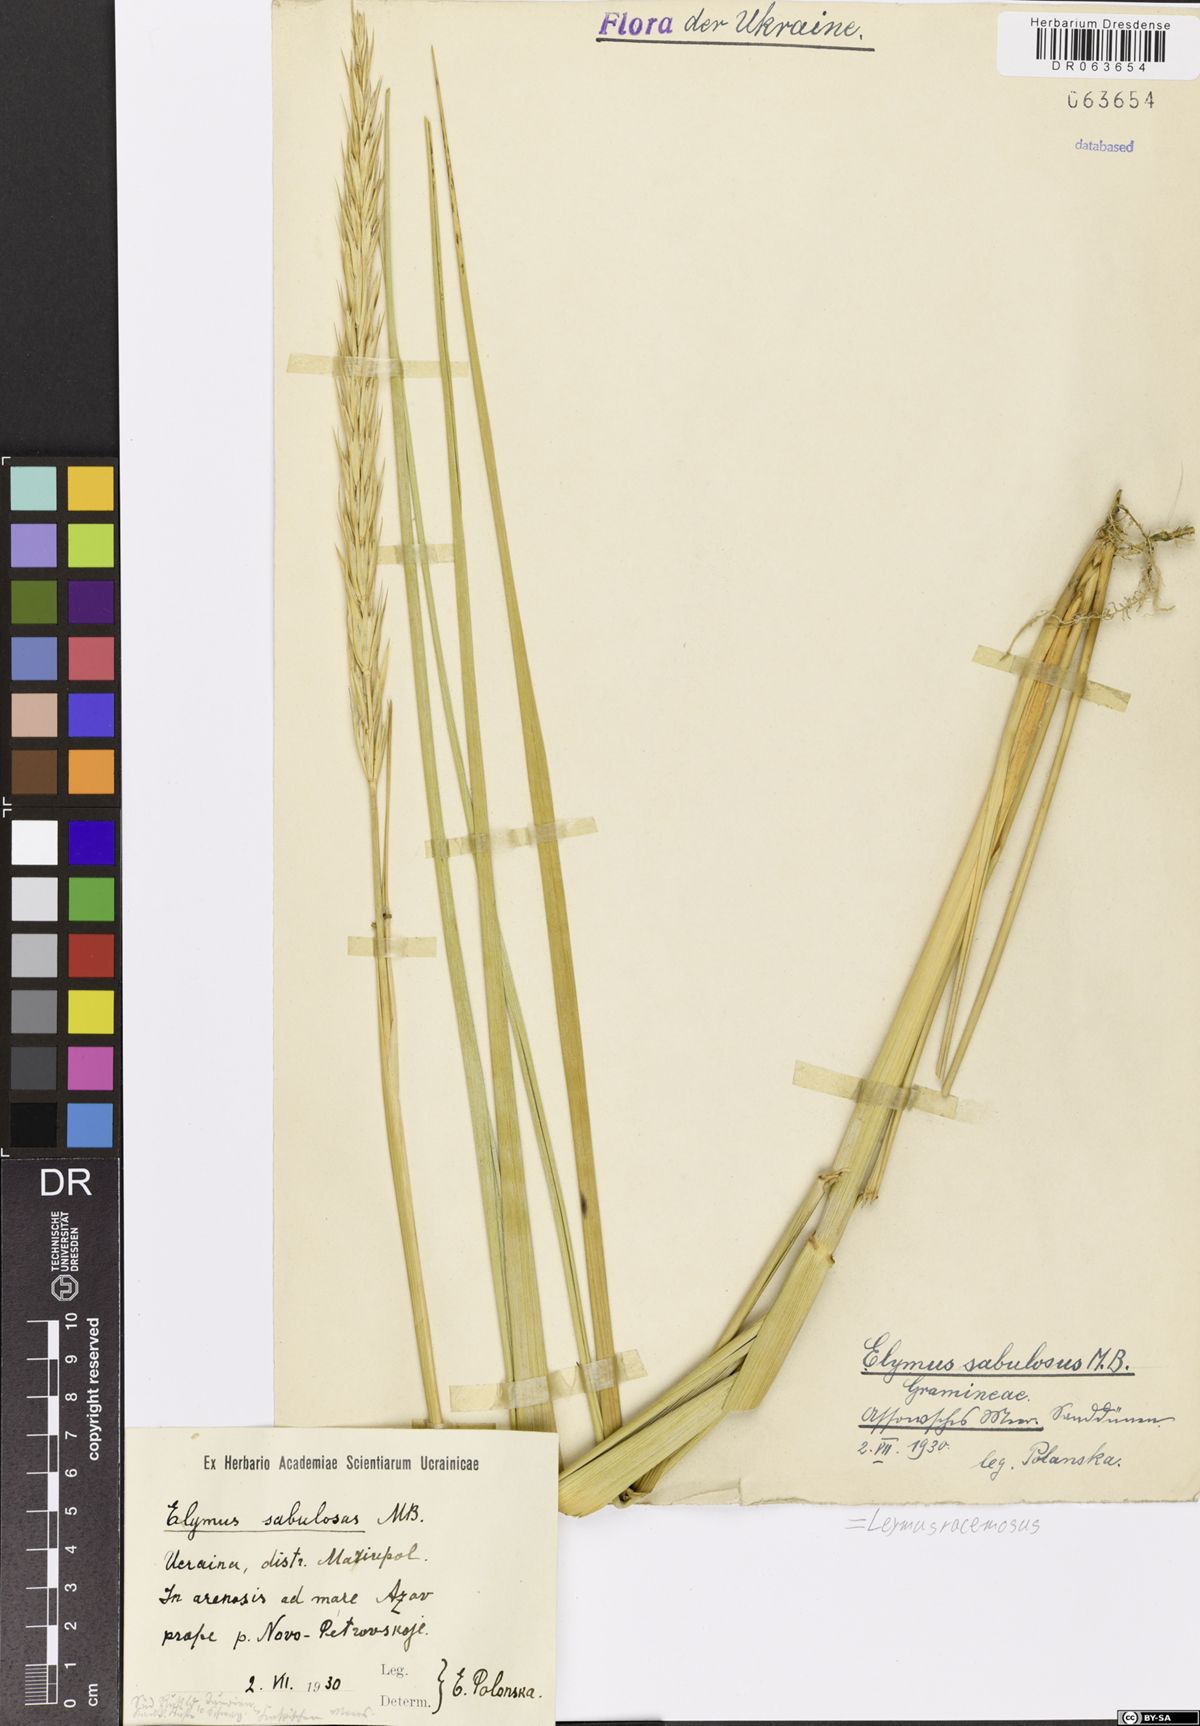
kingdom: Plantae
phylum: Tracheophyta
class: Liliopsida
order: Poales
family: Poaceae
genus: Leymus
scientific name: Leymus racemosus
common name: Mammoth wildrye
